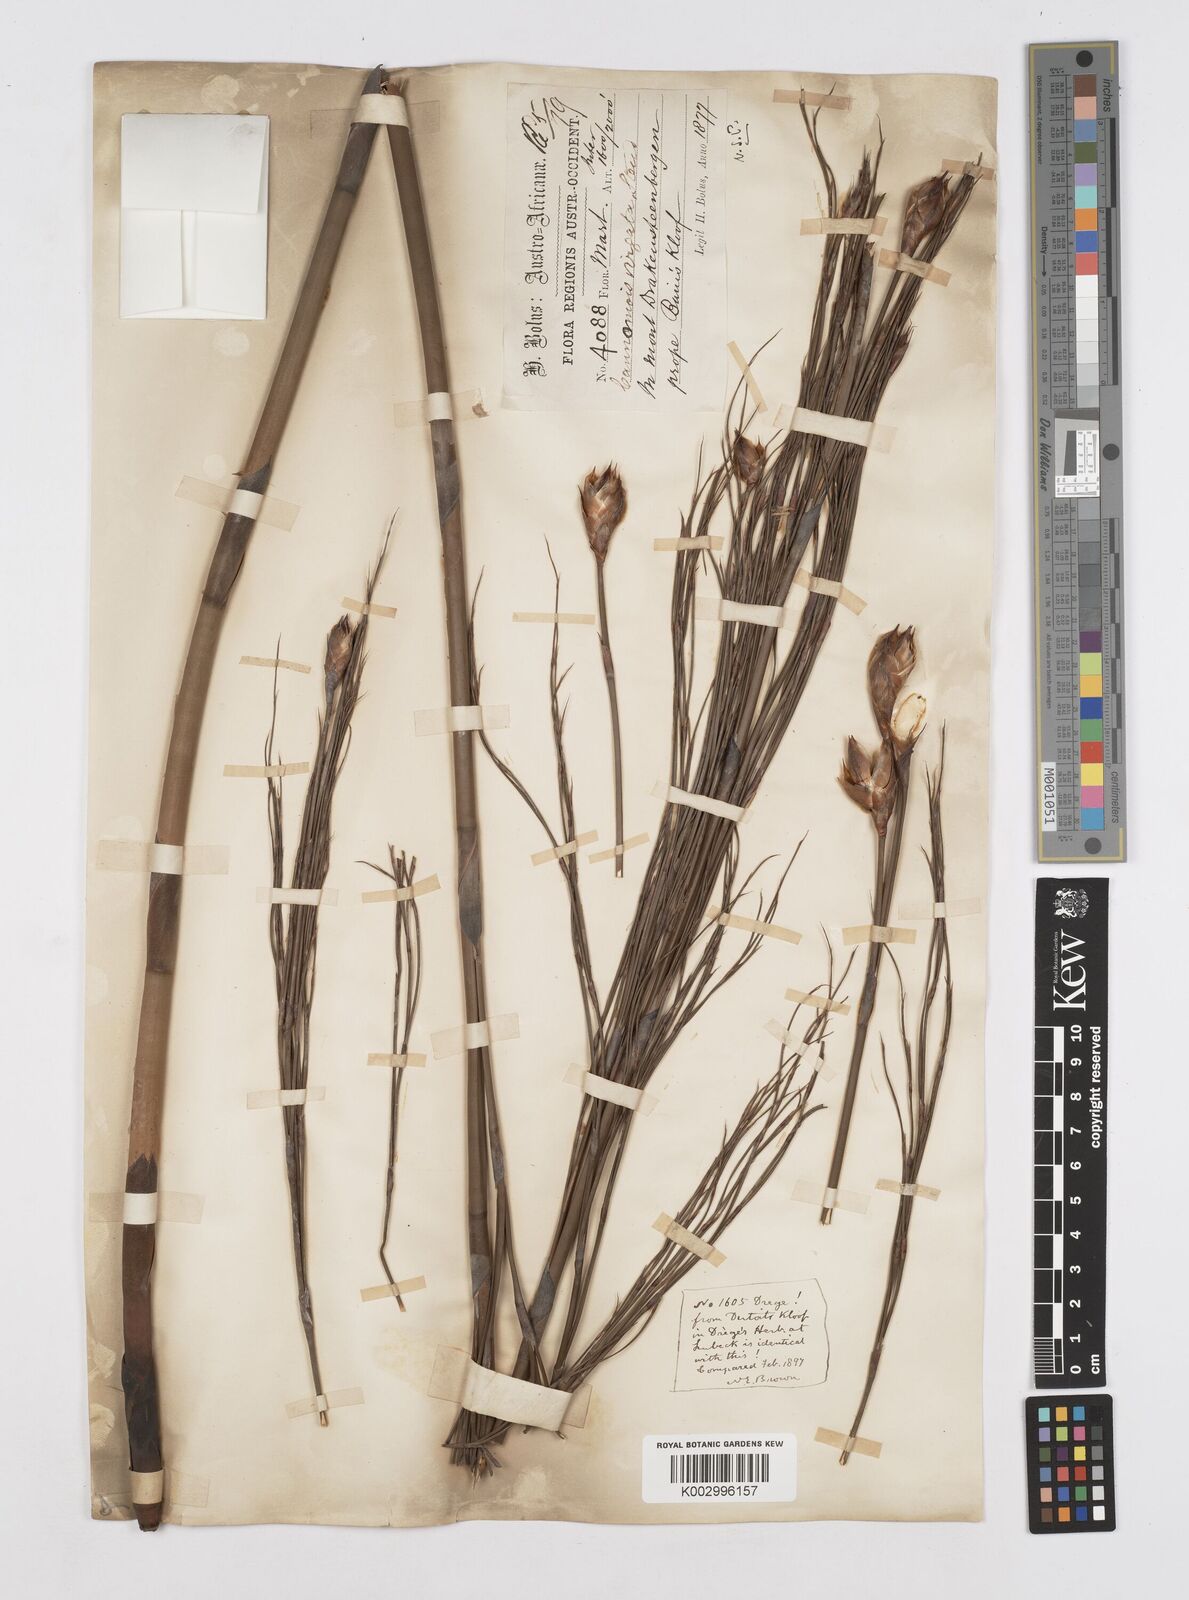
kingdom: Plantae
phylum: Tracheophyta
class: Liliopsida
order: Poales
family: Restionaceae
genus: Cannomois
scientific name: Cannomois virgata
